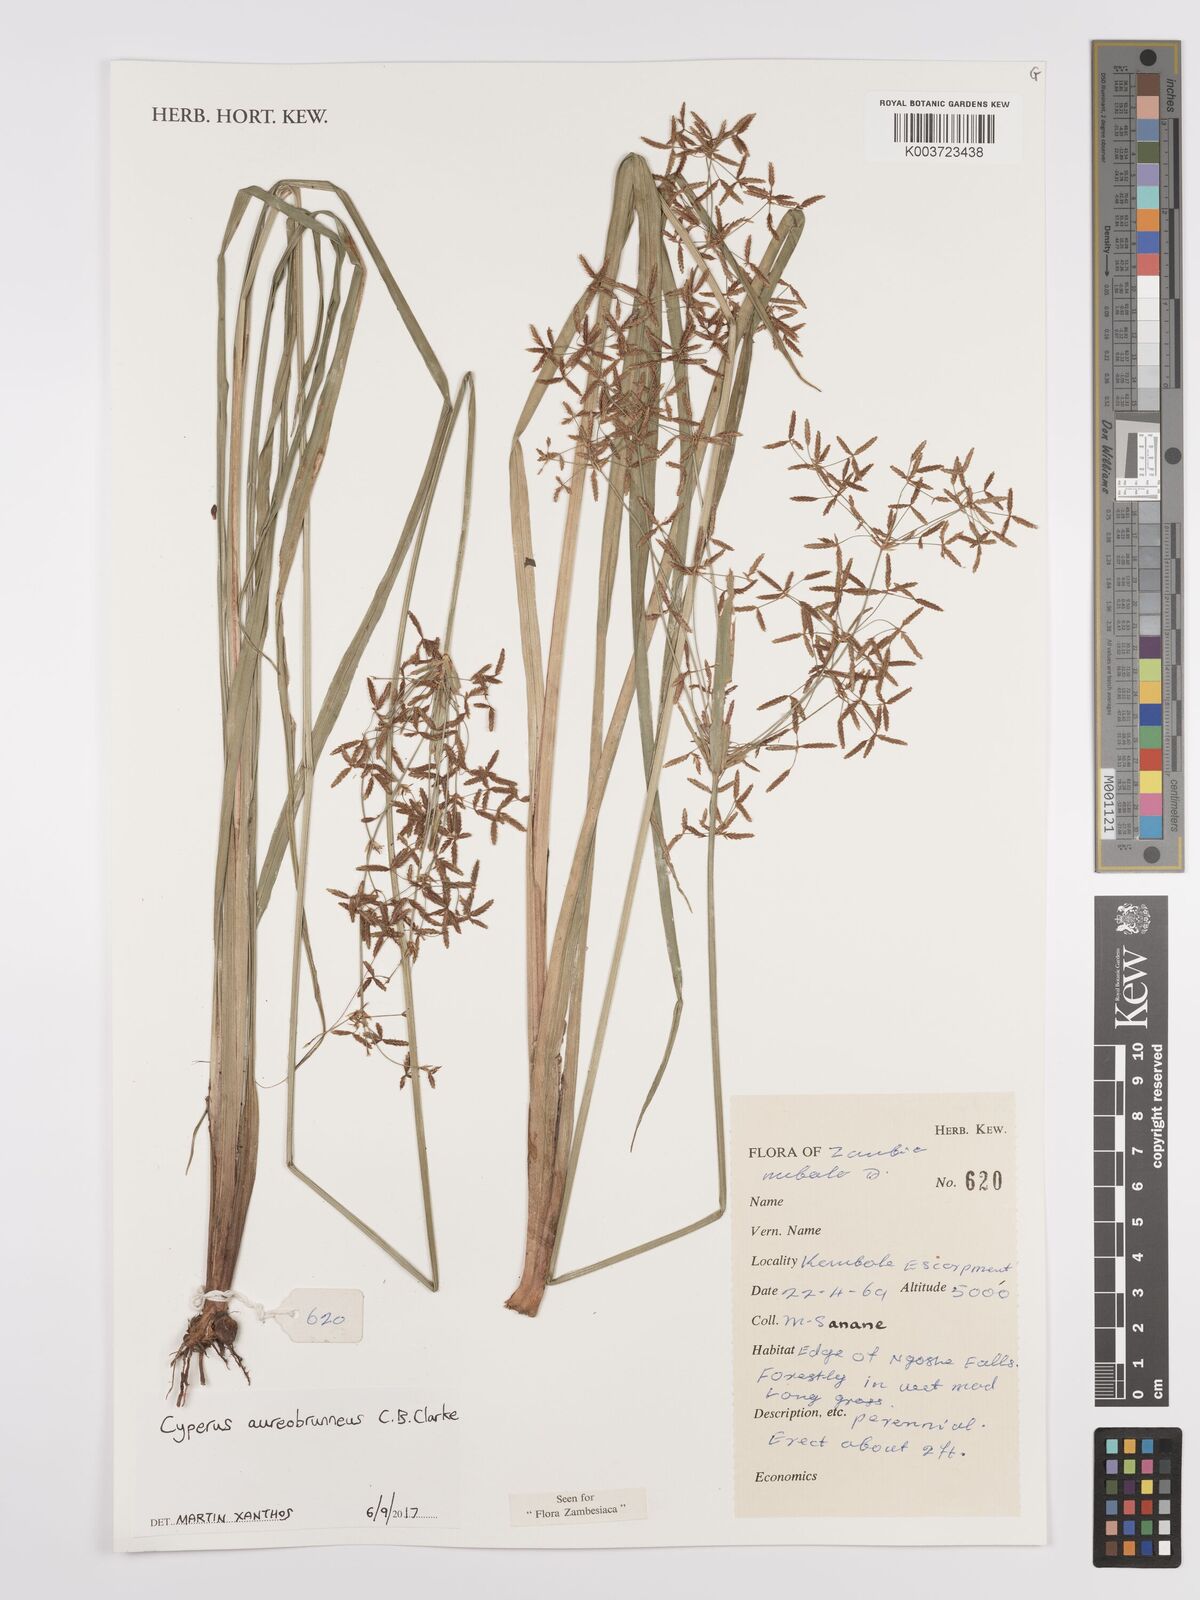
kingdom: Plantae
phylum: Tracheophyta
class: Liliopsida
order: Poales
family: Cyperaceae
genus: Cyperus
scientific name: Cyperus aureobrunneus
